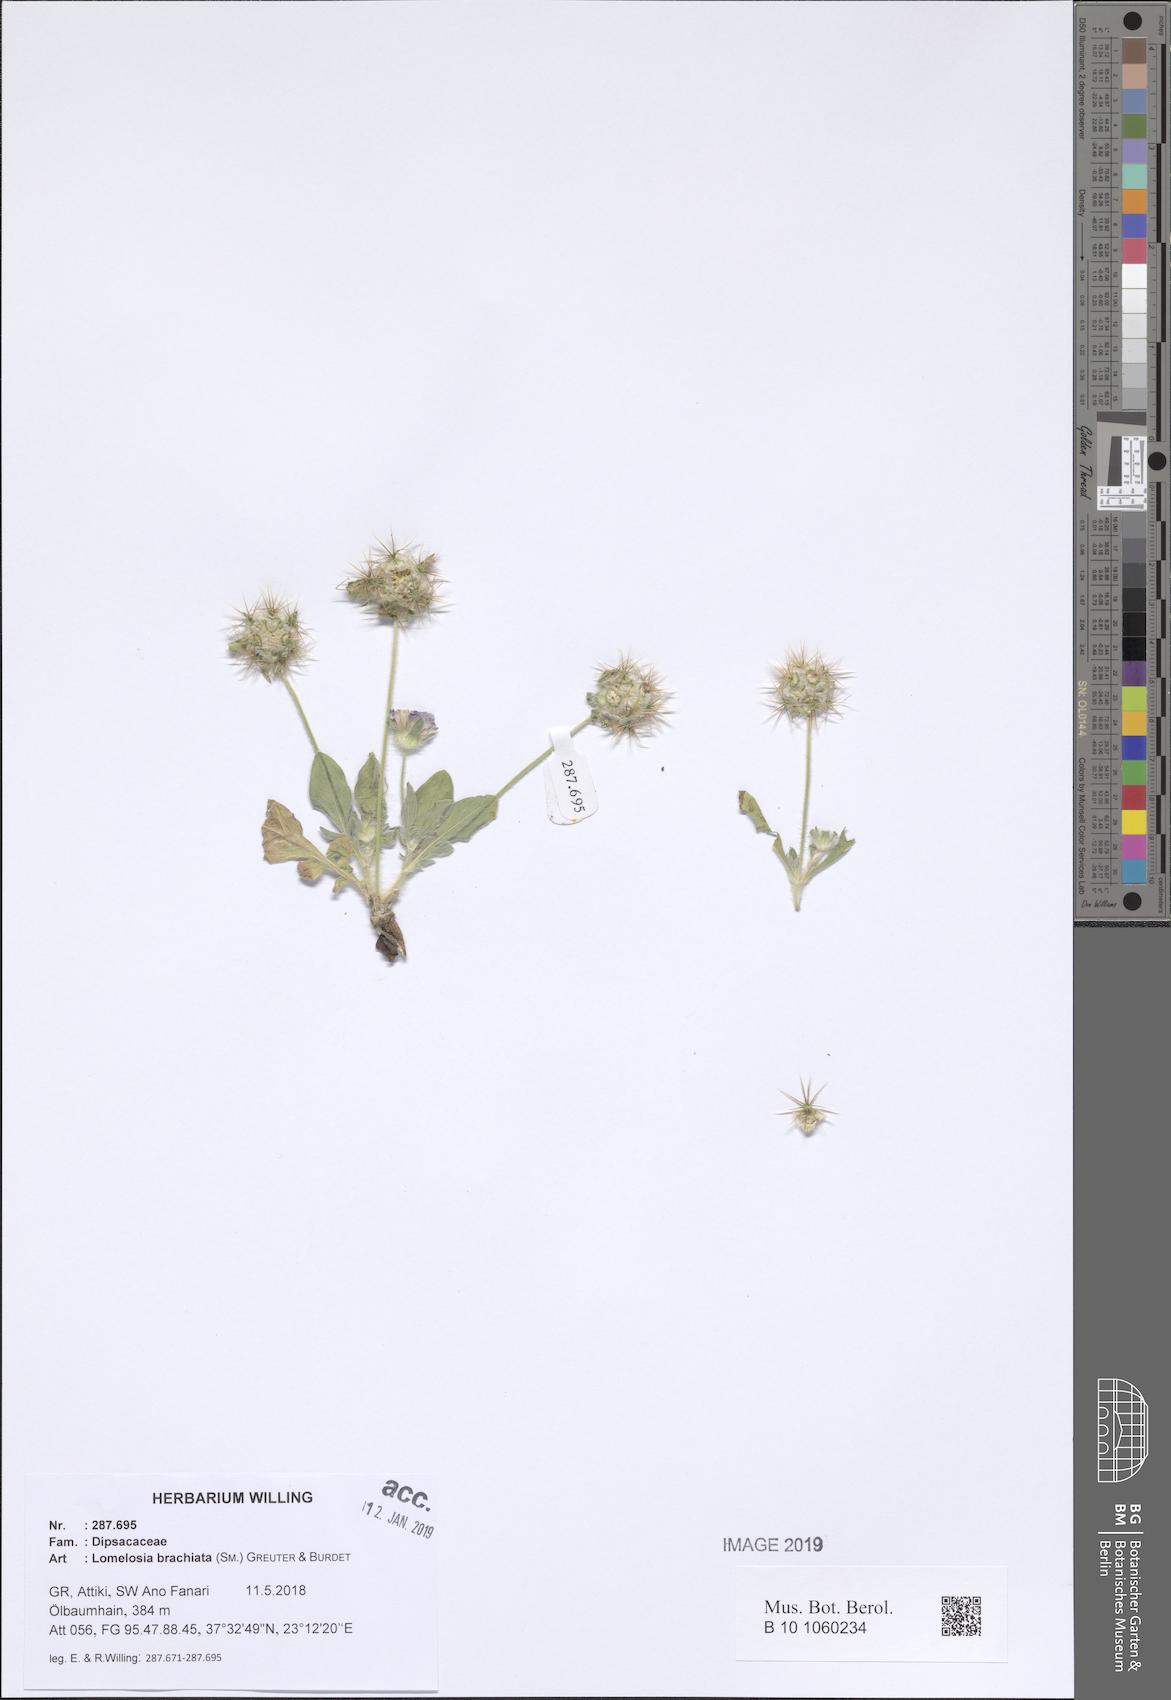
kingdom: Plantae
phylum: Tracheophyta
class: Magnoliopsida
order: Dipsacales
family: Caprifoliaceae
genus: Lomelosia
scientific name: Lomelosia brachiata
